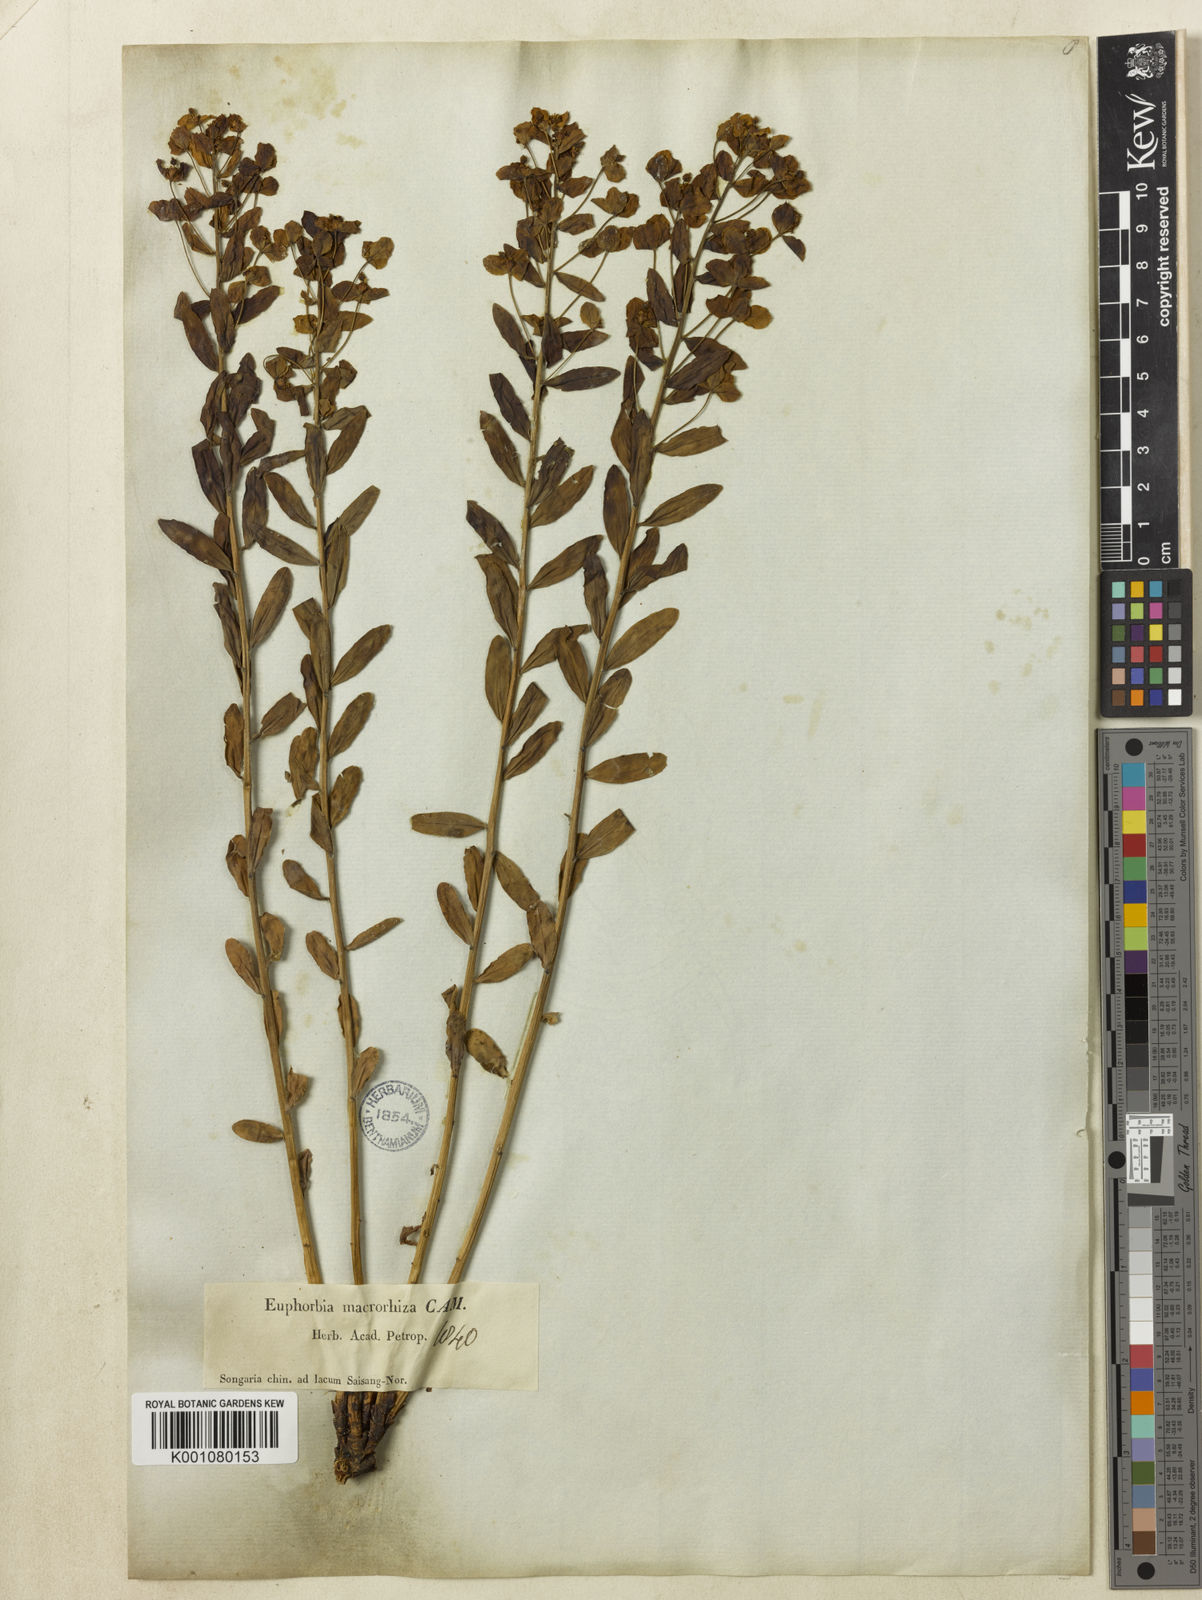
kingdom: Plantae
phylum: Tracheophyta
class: Magnoliopsida
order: Malpighiales
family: Euphorbiaceae
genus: Euphorbia
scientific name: Euphorbia
